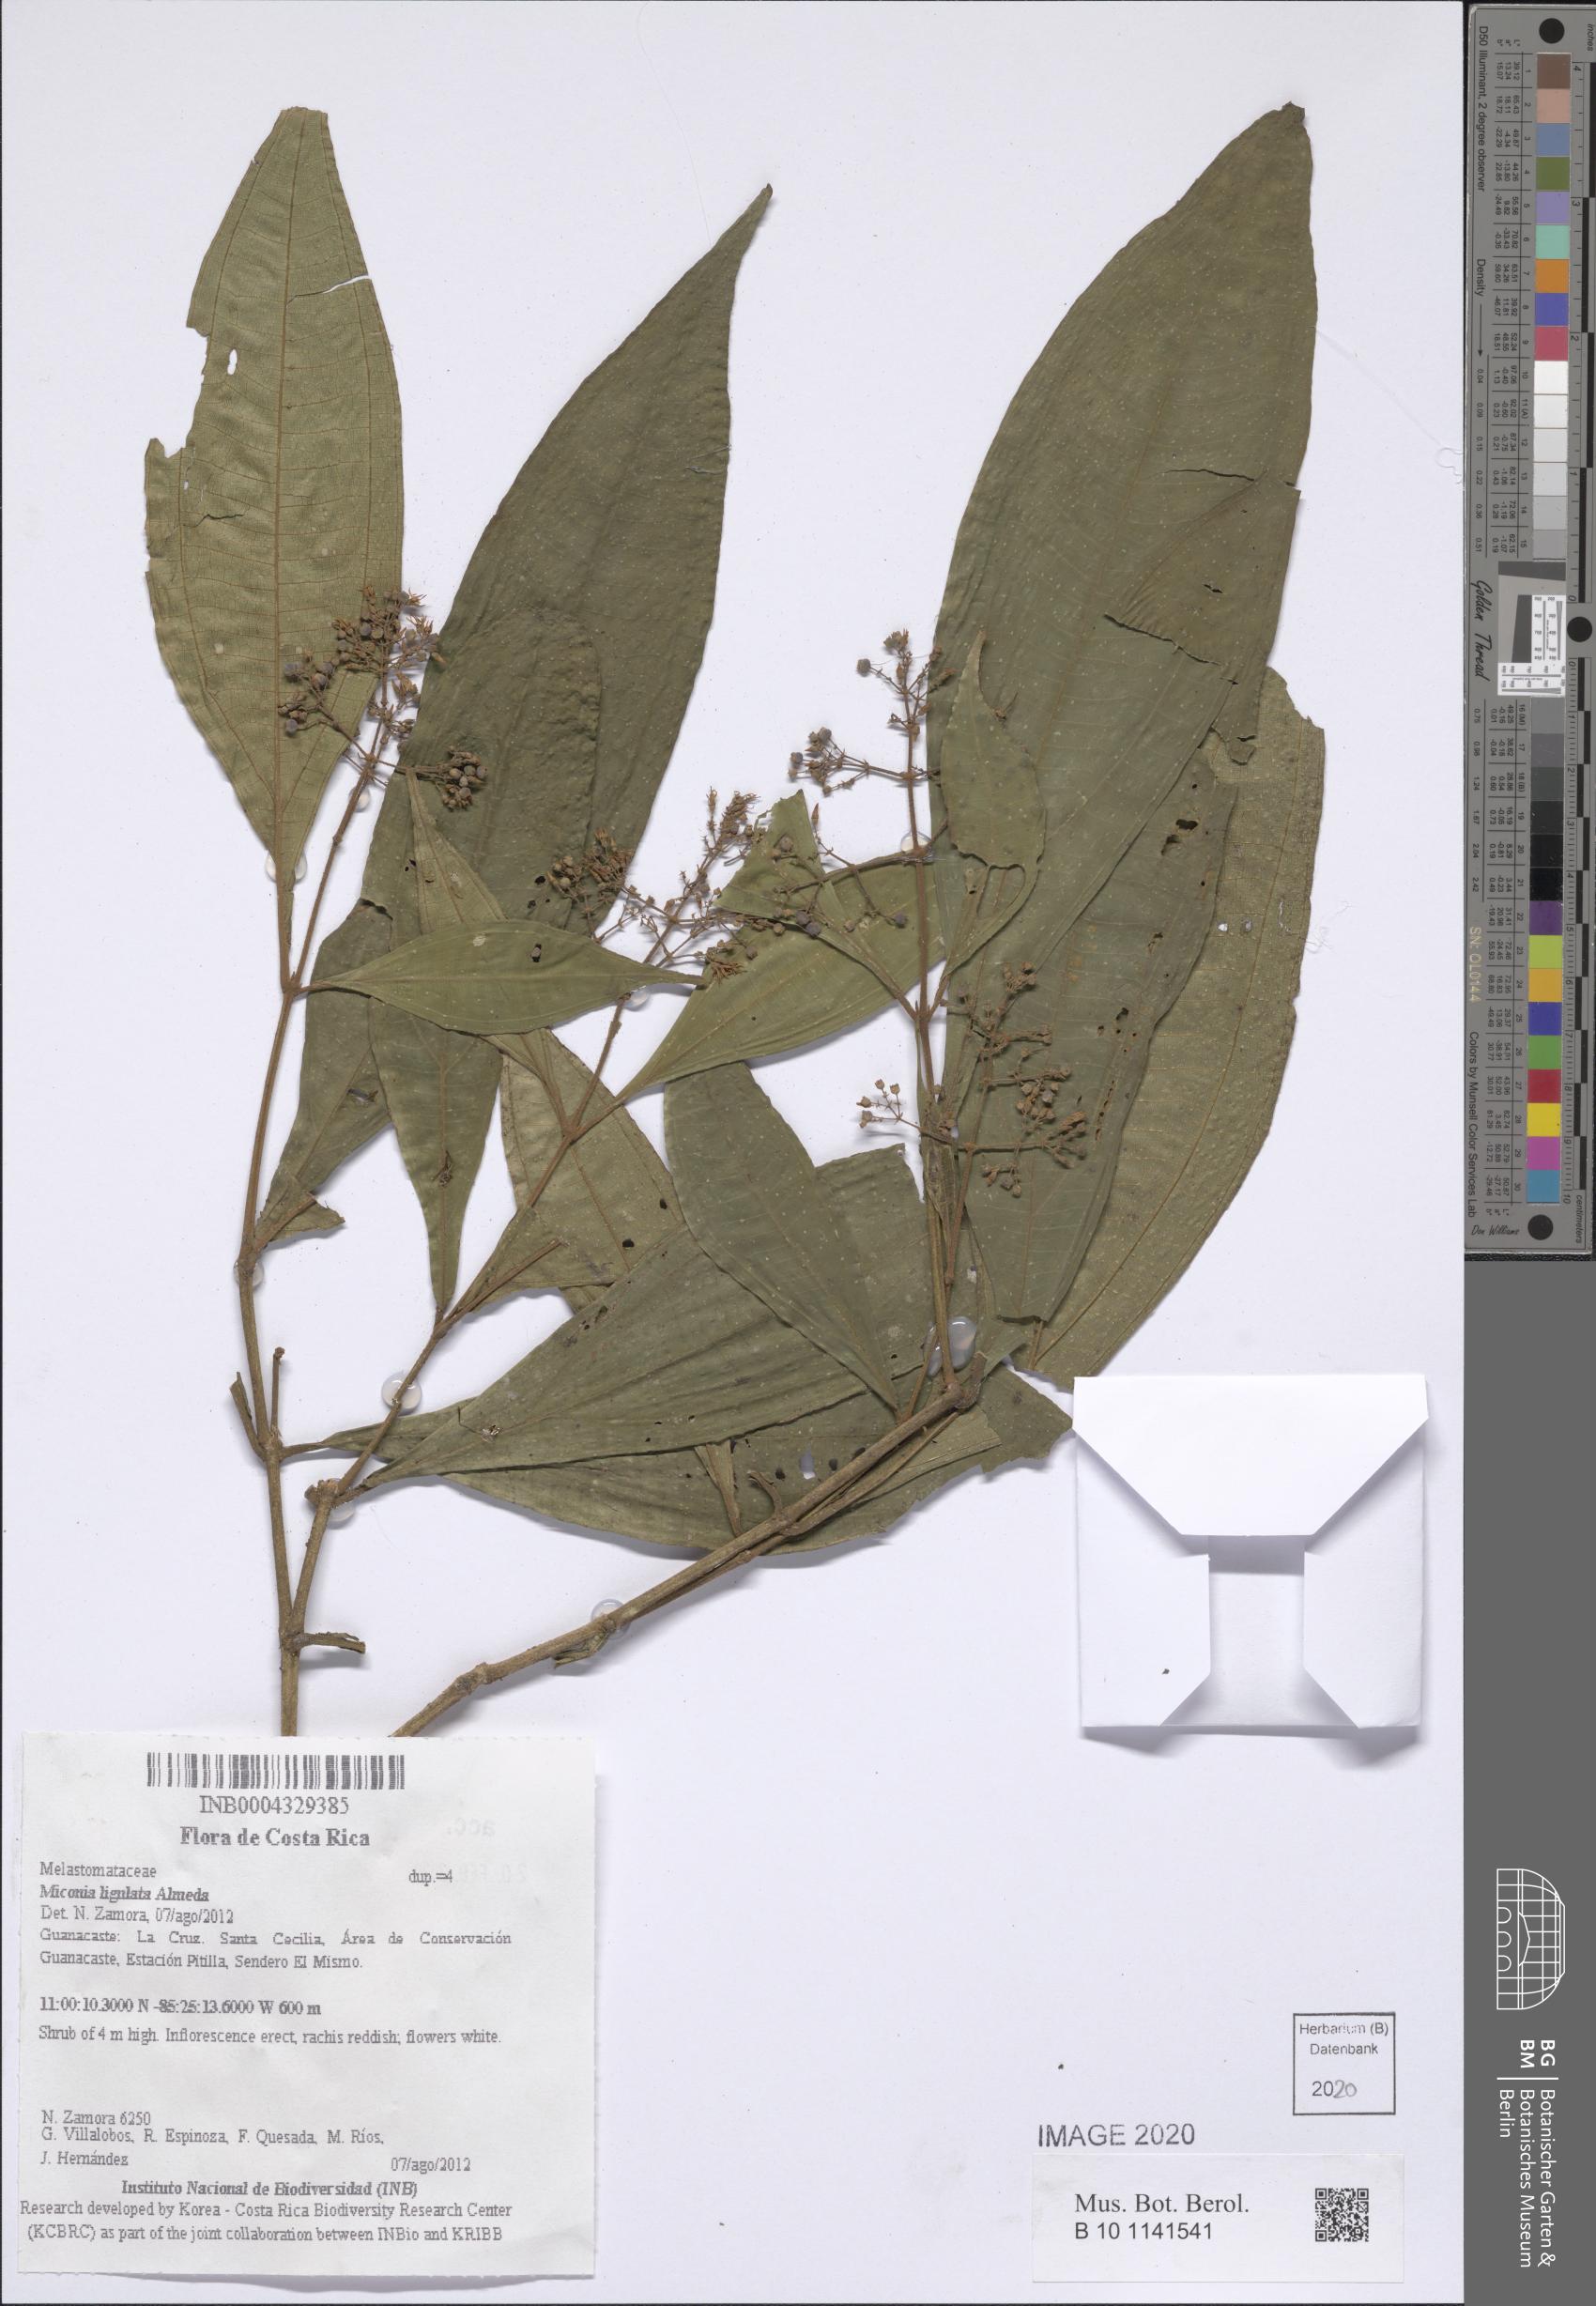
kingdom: Plantae
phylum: Tracheophyta
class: Magnoliopsida
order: Myrtales
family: Melastomataceae
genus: Miconia
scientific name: Miconia ligulata
